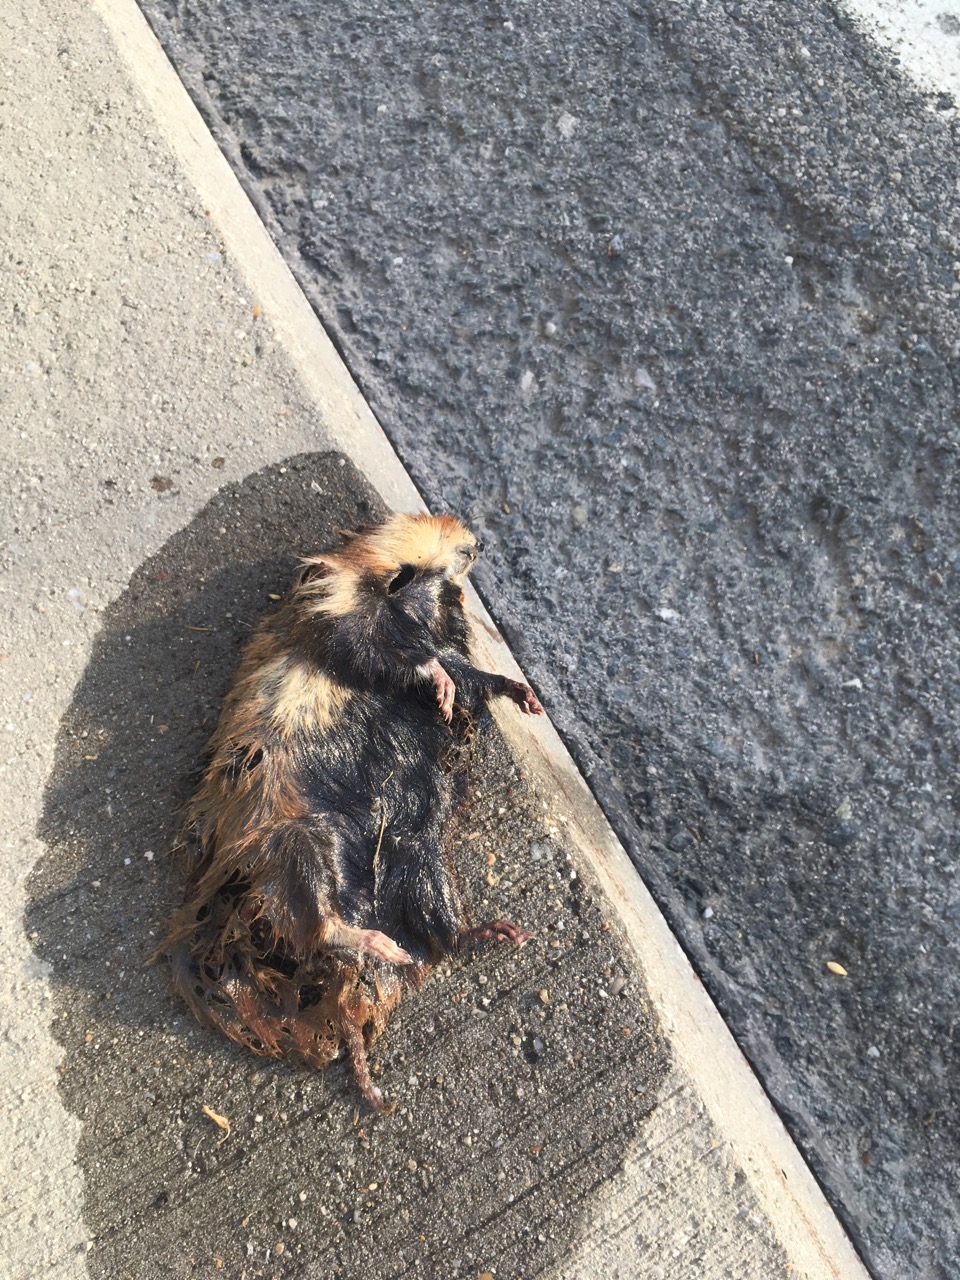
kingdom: Animalia
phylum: Chordata
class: Mammalia
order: Rodentia
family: Cricetidae
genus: Cricetus
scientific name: Cricetus cricetus
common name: Common hamster
